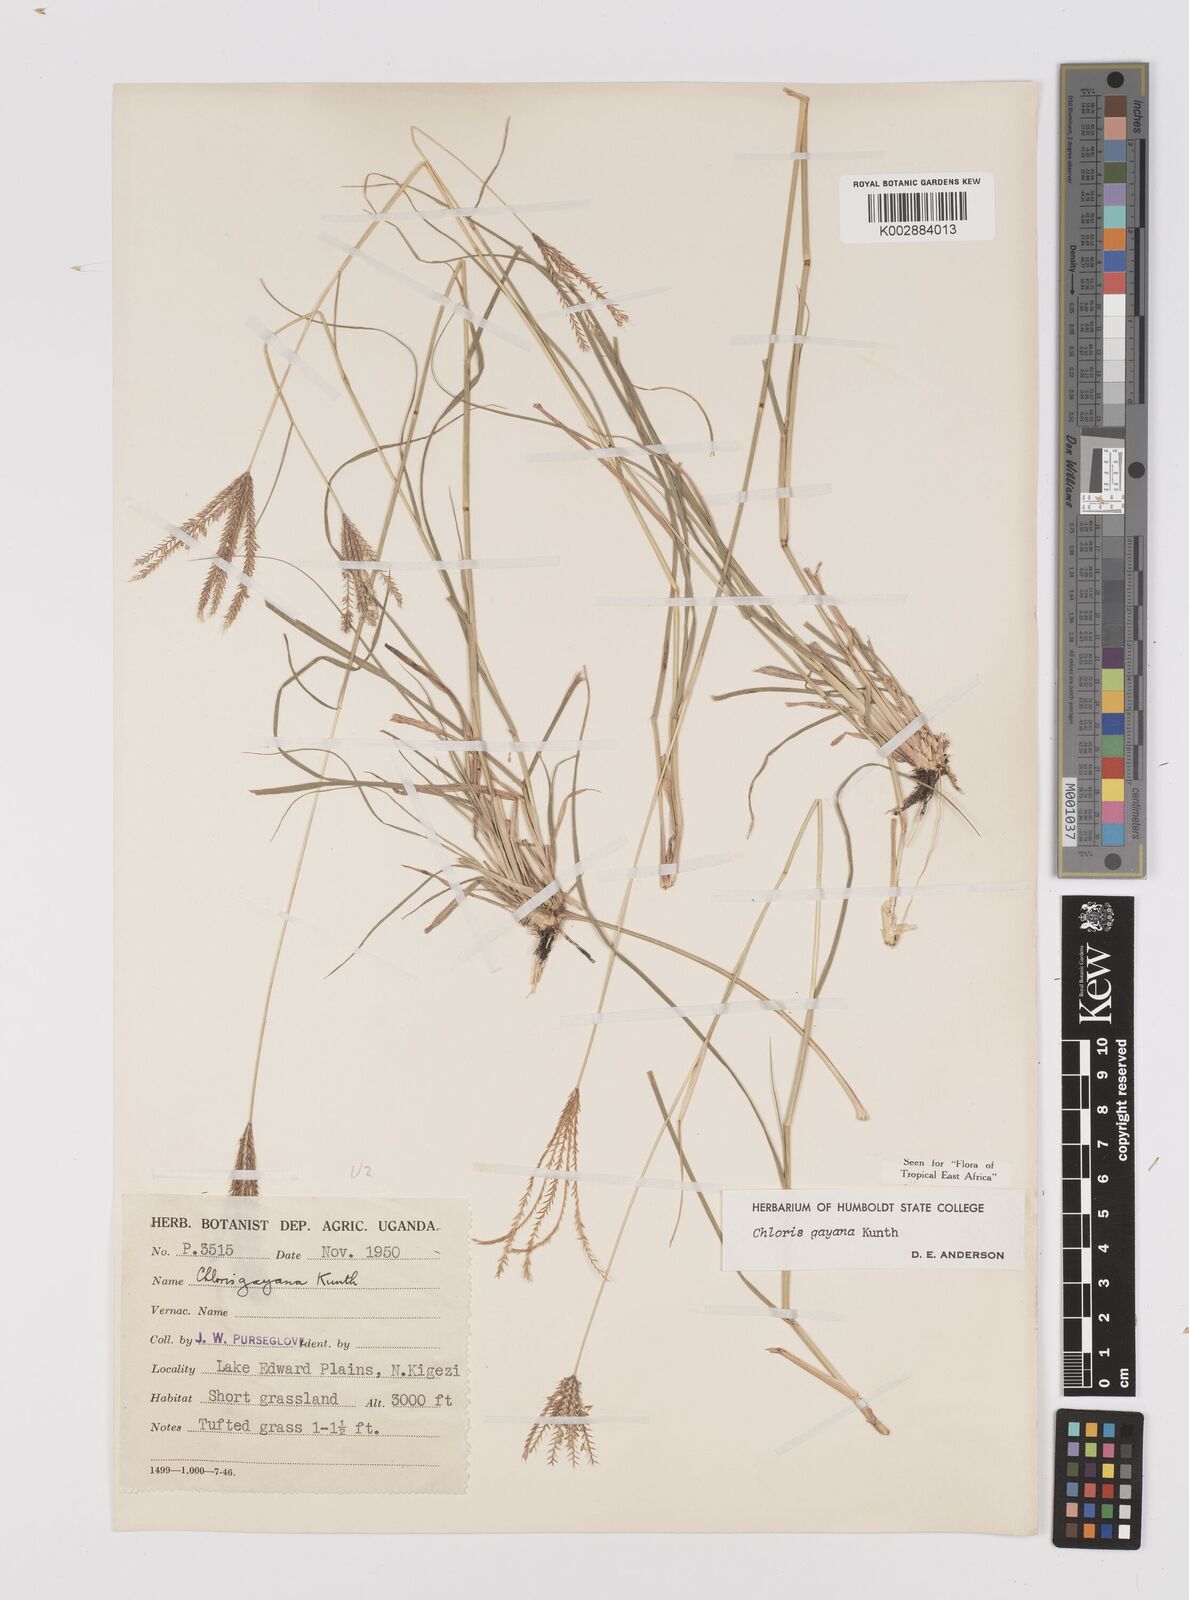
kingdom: Plantae
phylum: Tracheophyta
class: Liliopsida
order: Poales
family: Poaceae
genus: Chloris
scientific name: Chloris gayana
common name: Rhodes grass
